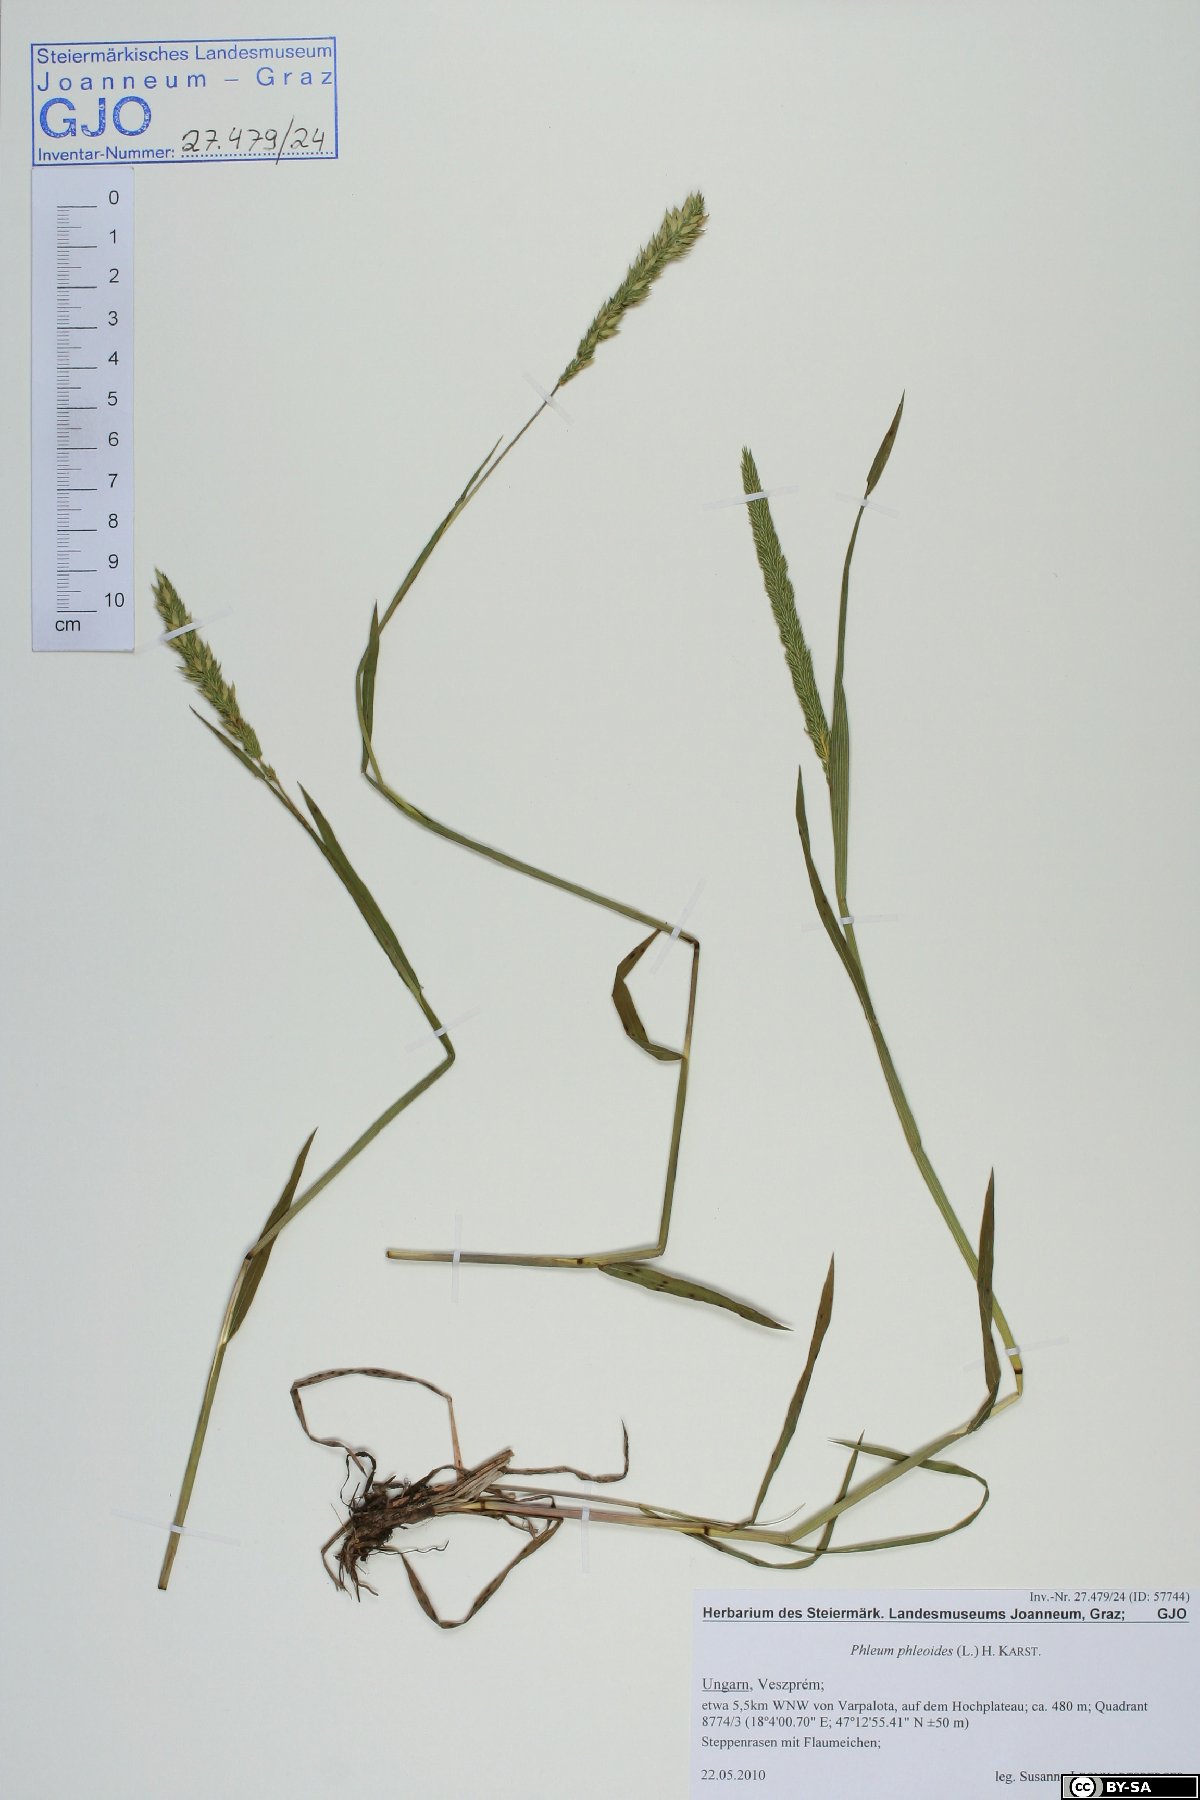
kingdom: Plantae
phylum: Tracheophyta
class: Liliopsida
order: Poales
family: Poaceae
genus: Phleum
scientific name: Phleum phleoides
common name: Purple-stem cat's-tail
